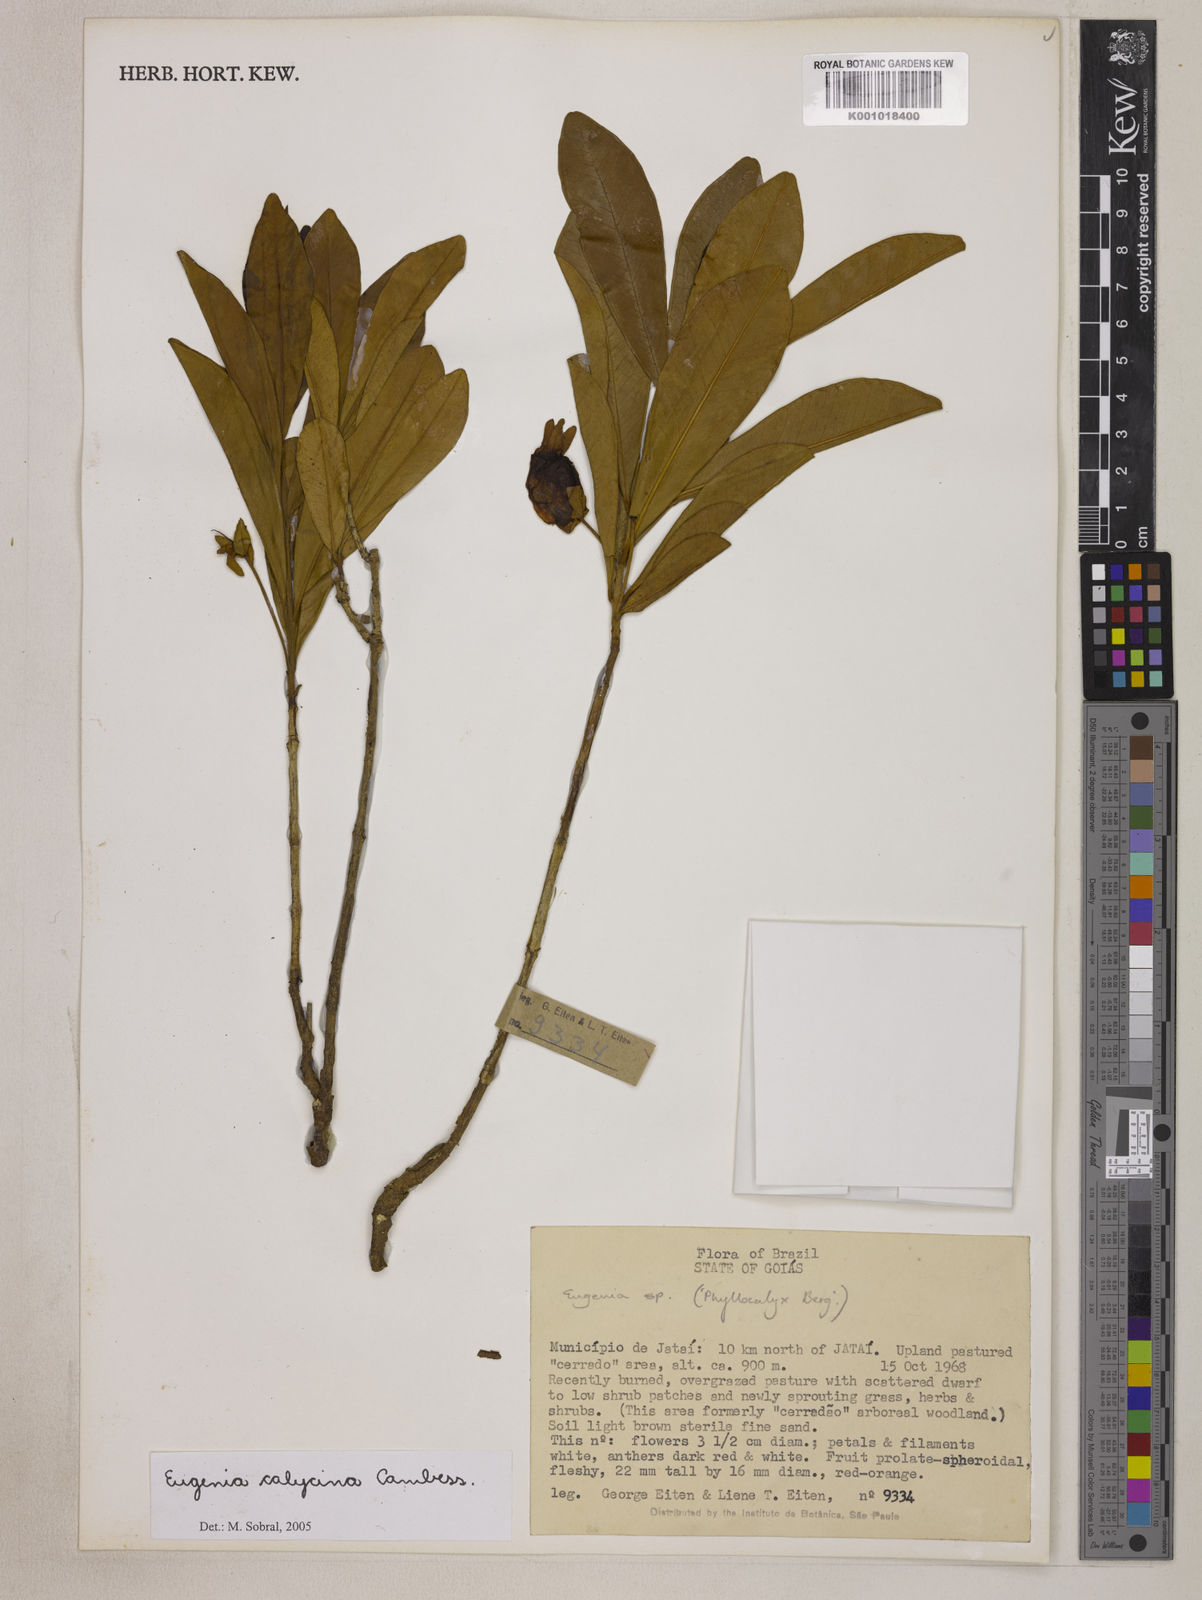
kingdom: Plantae
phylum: Tracheophyta
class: Magnoliopsida
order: Myrtales
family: Myrtaceae
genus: Eugenia
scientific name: Eugenia calycina
